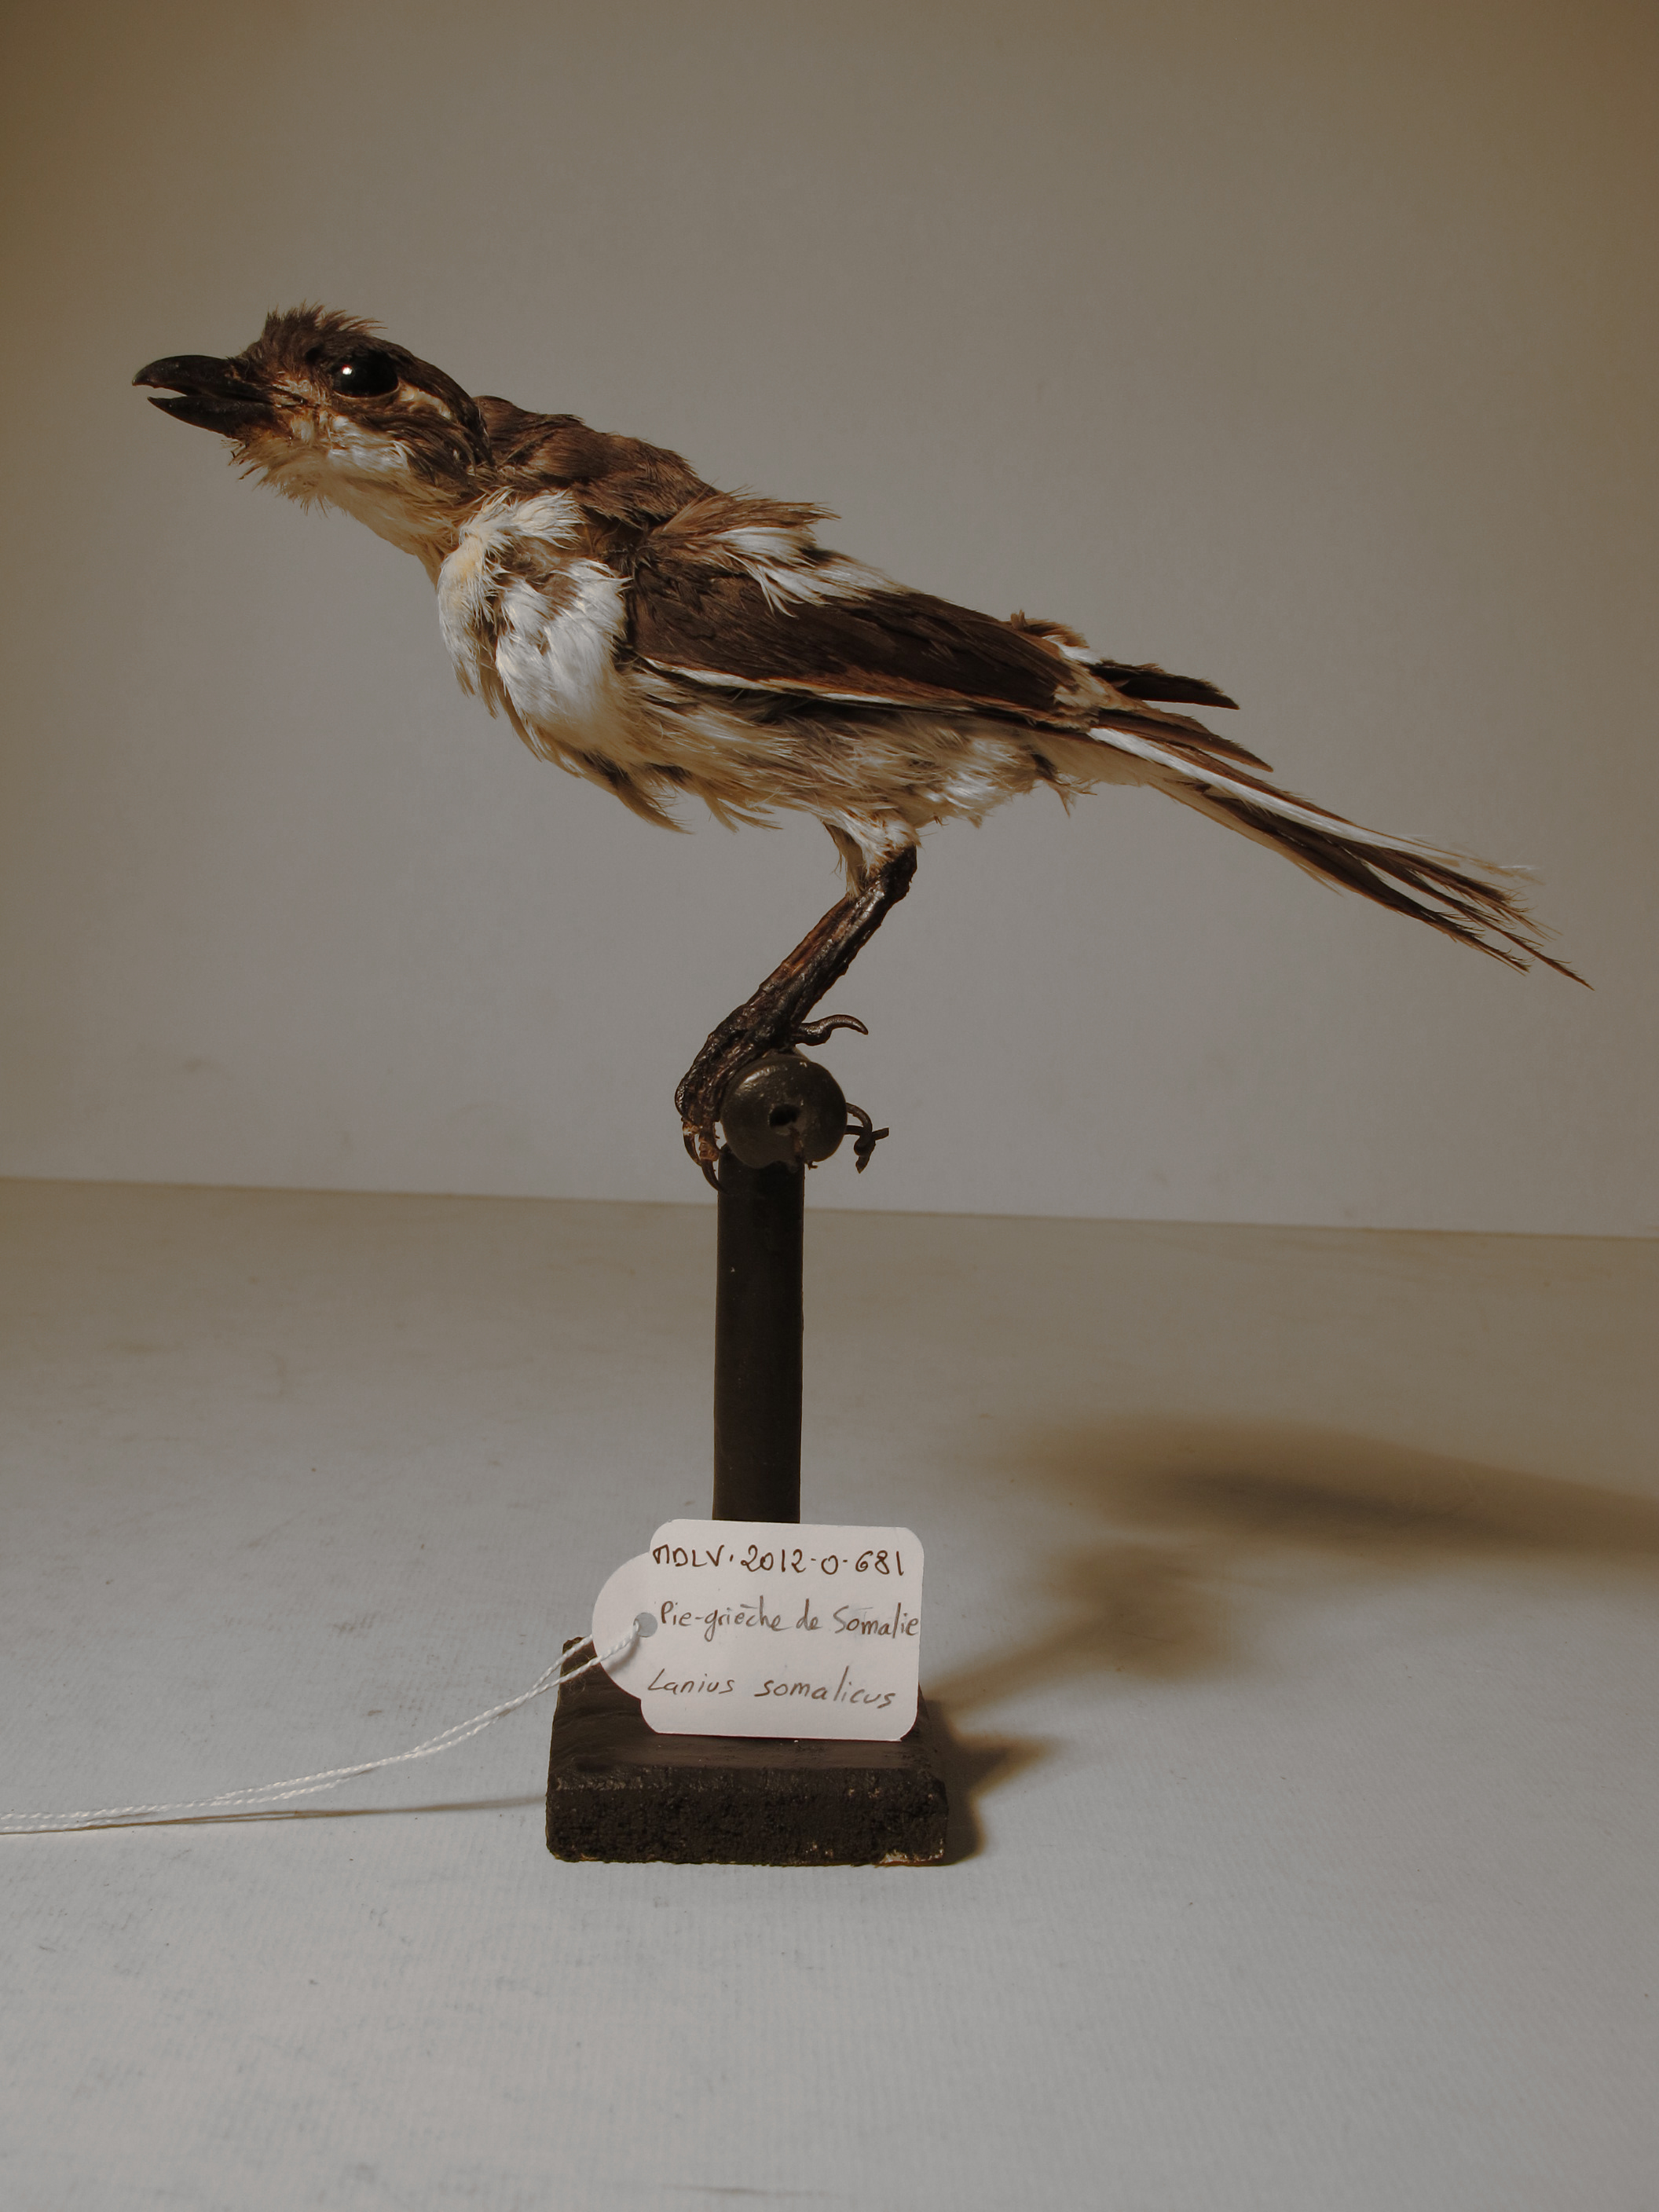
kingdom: Animalia
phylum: Chordata
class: Aves
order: Passeriformes
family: Laniidae
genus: Lanius
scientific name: Lanius somalicus
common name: Somali Fiscal
